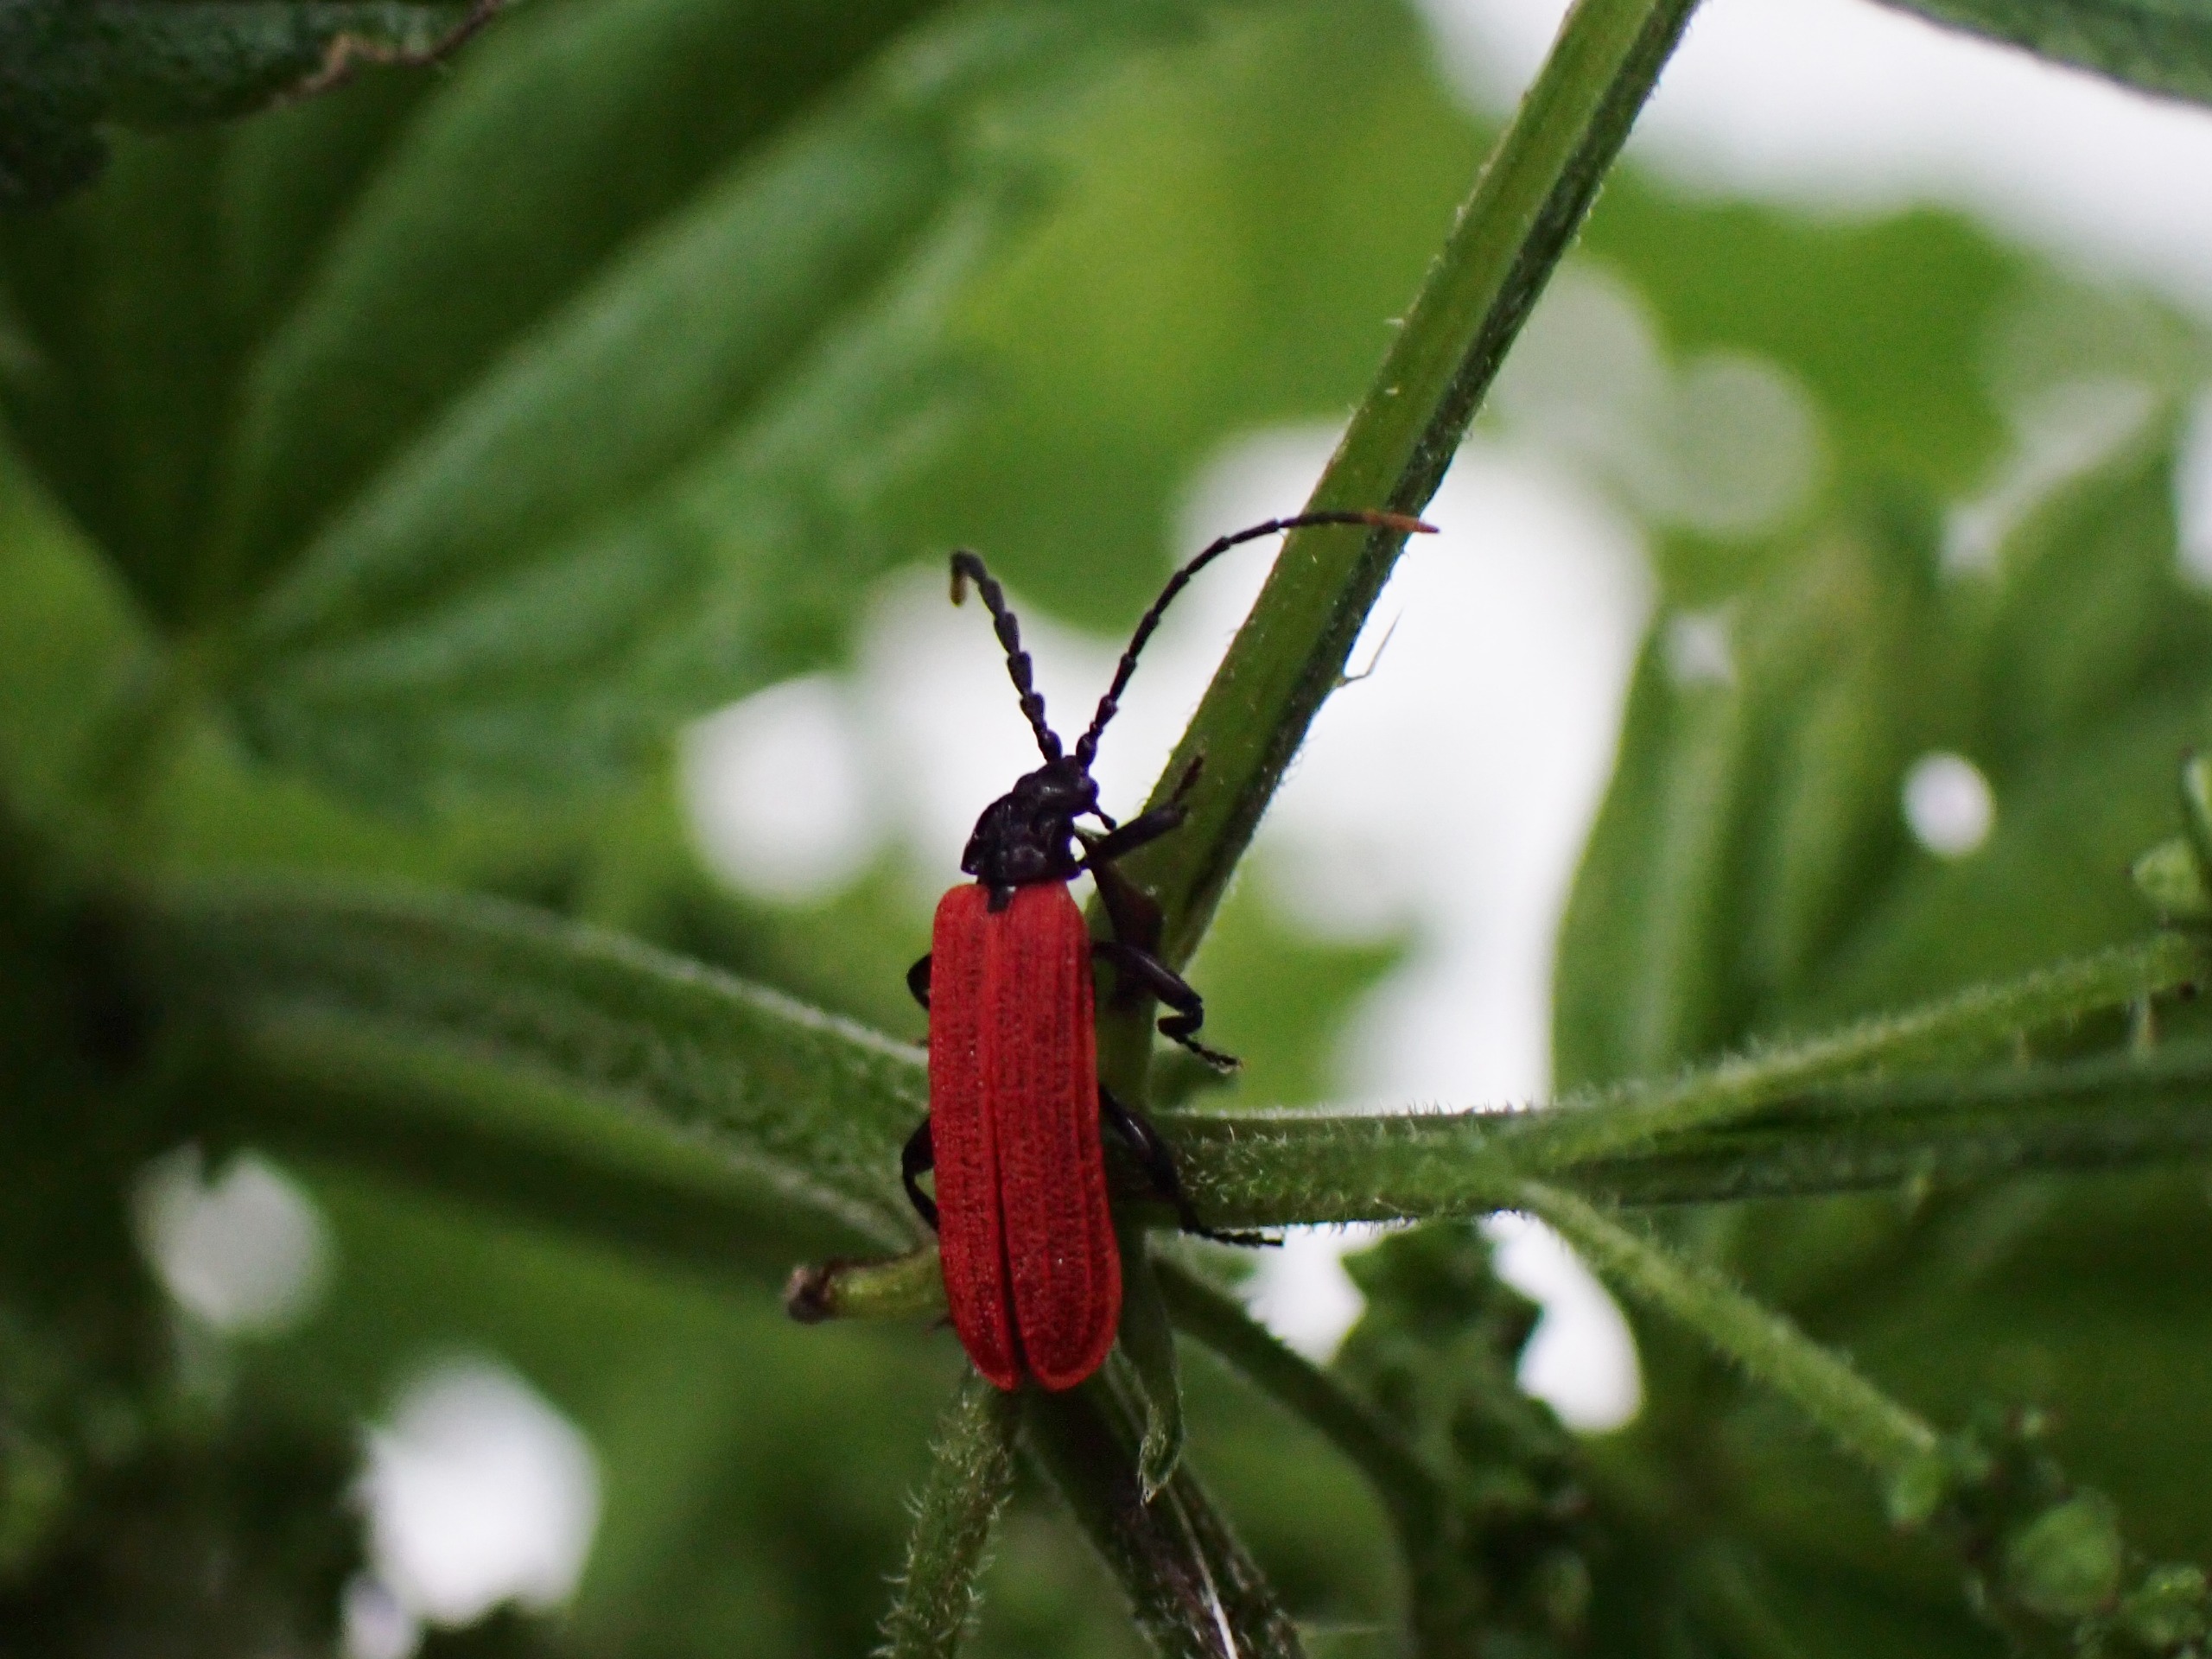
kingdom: Animalia
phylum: Arthropoda
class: Insecta
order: Coleoptera
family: Lycidae
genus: Platycis
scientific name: Platycis minutus
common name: Lille maskebille
